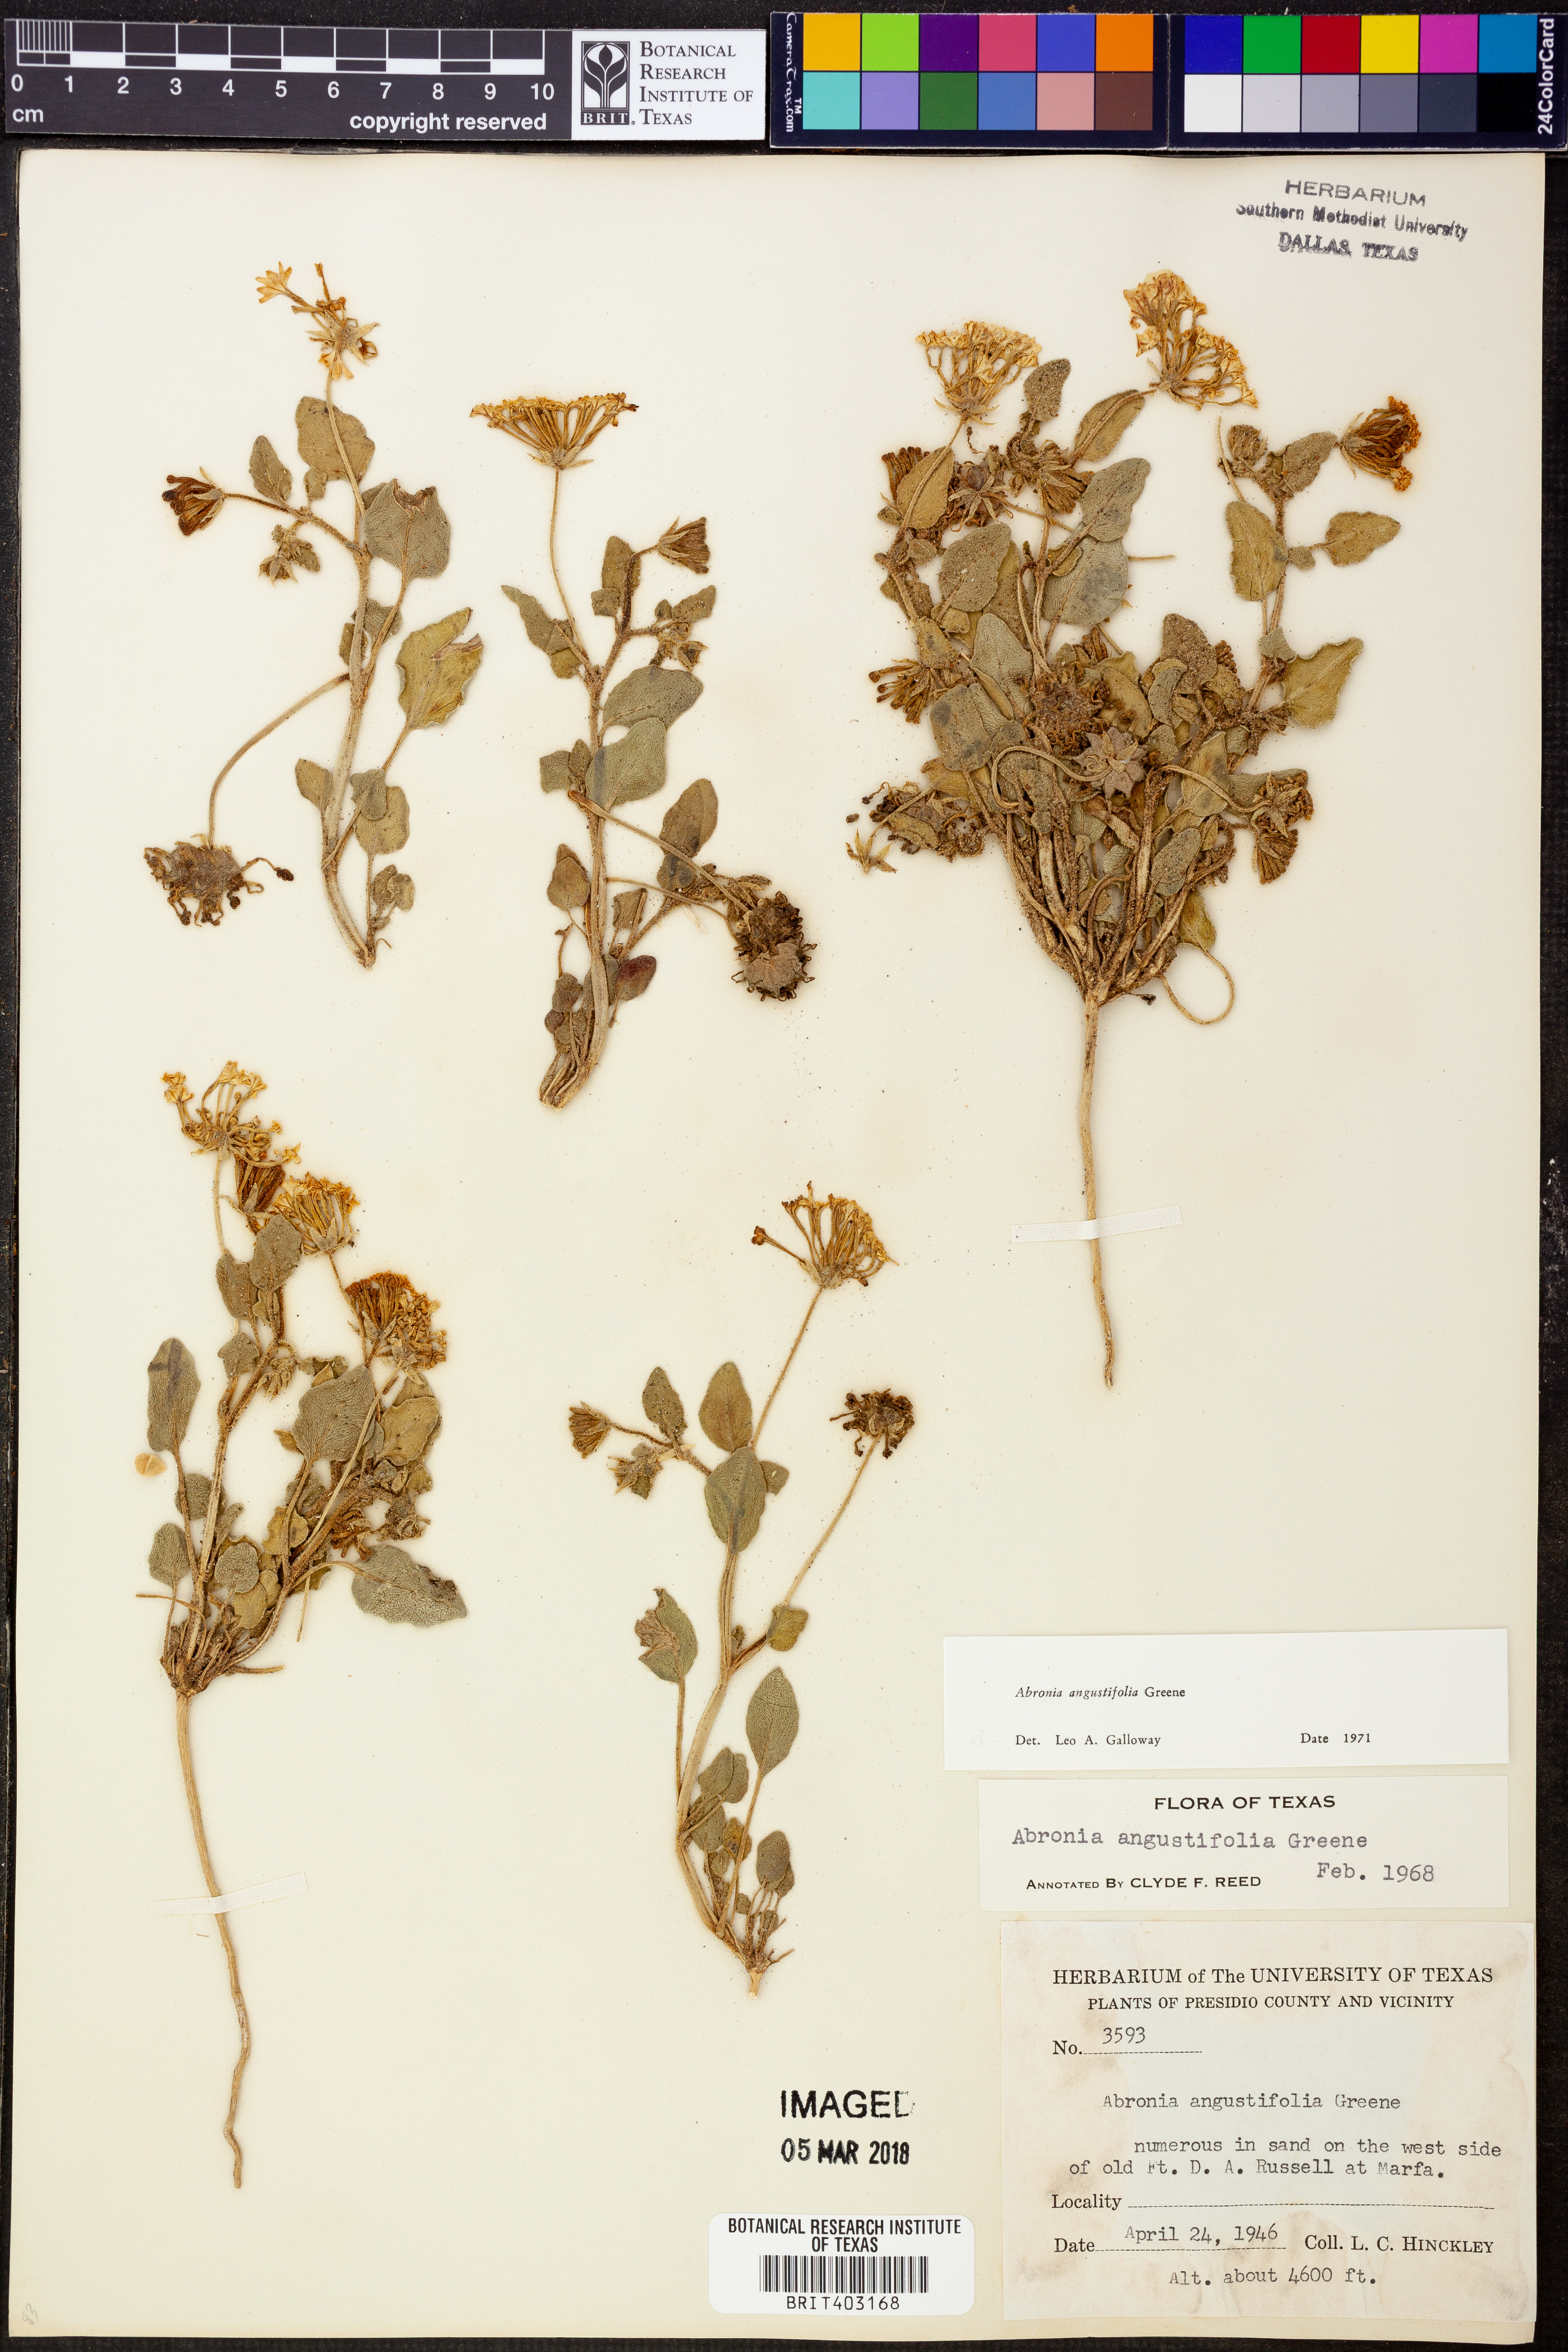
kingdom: Plantae
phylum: Tracheophyta
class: Magnoliopsida
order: Caryophyllales
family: Nyctaginaceae
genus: Abronia
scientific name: Abronia angustifolia
